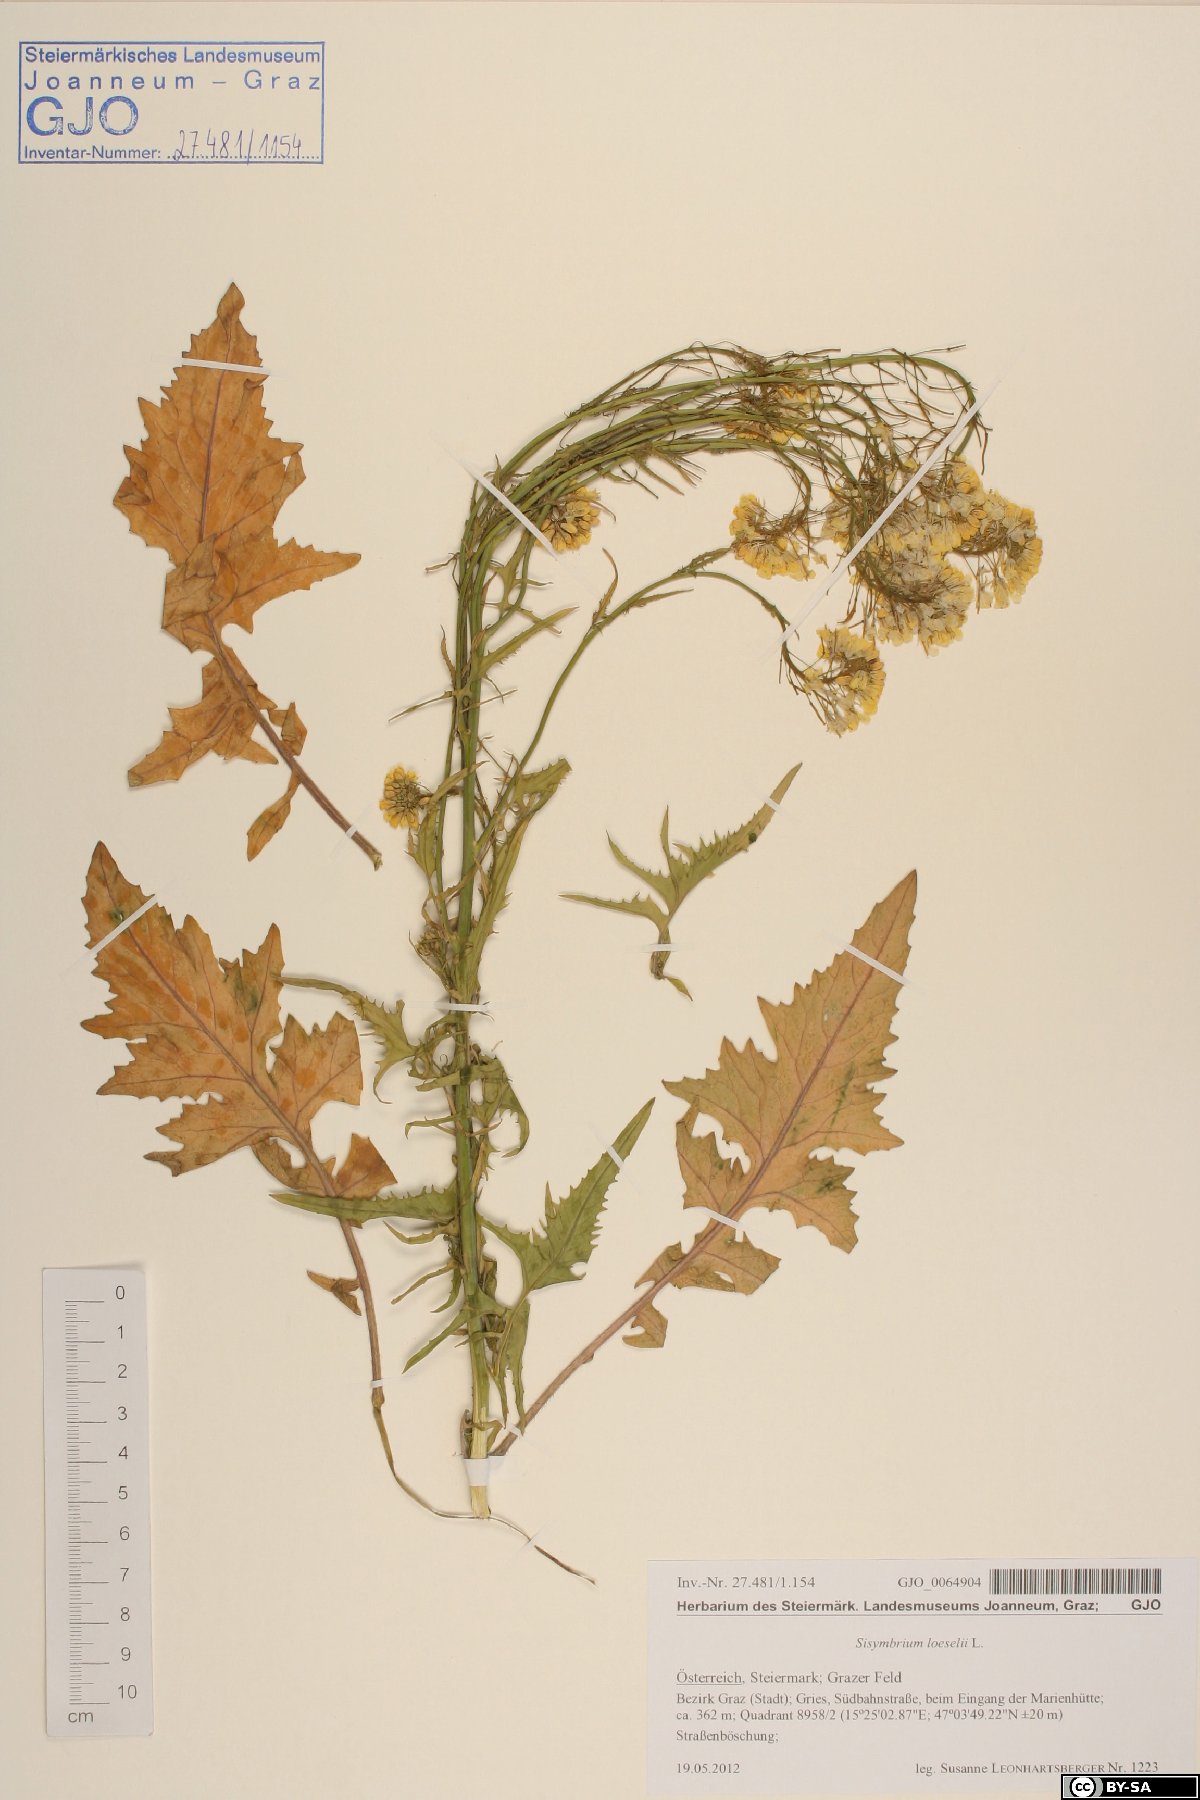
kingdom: Plantae
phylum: Tracheophyta
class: Magnoliopsida
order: Brassicales
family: Brassicaceae
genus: Sisymbrium
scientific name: Sisymbrium loeselii
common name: False london-rocket
